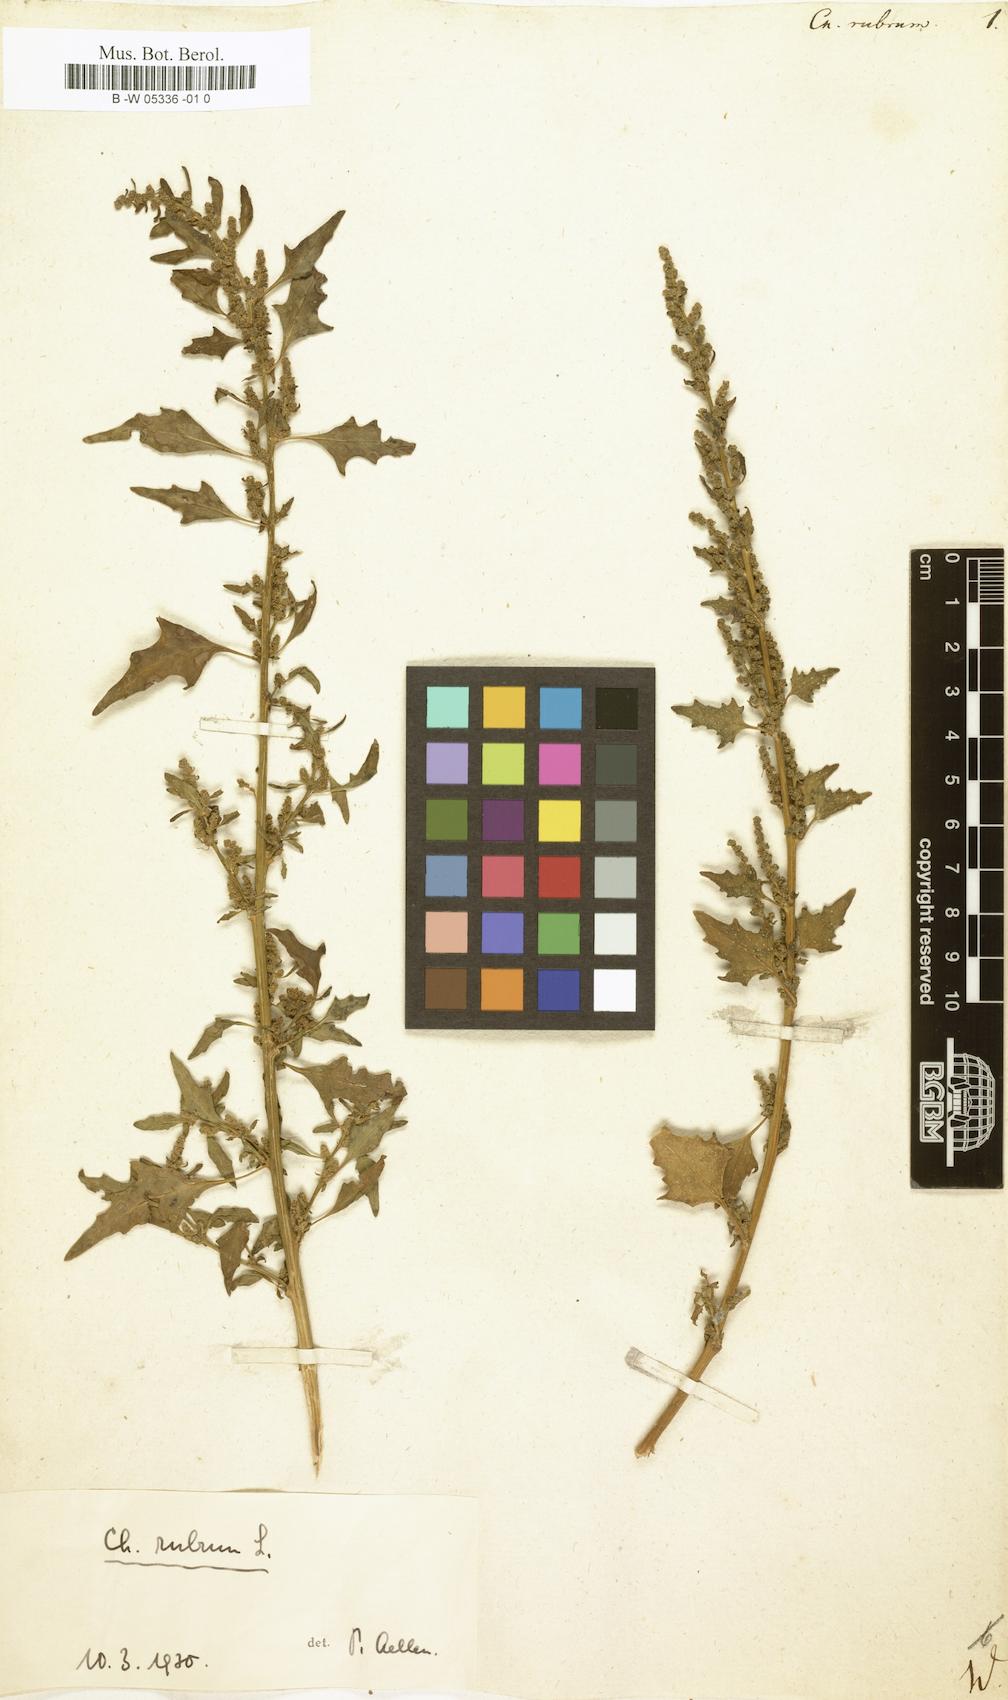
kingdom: Plantae
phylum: Tracheophyta
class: Magnoliopsida
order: Caryophyllales
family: Amaranthaceae
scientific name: Amaranthaceae
